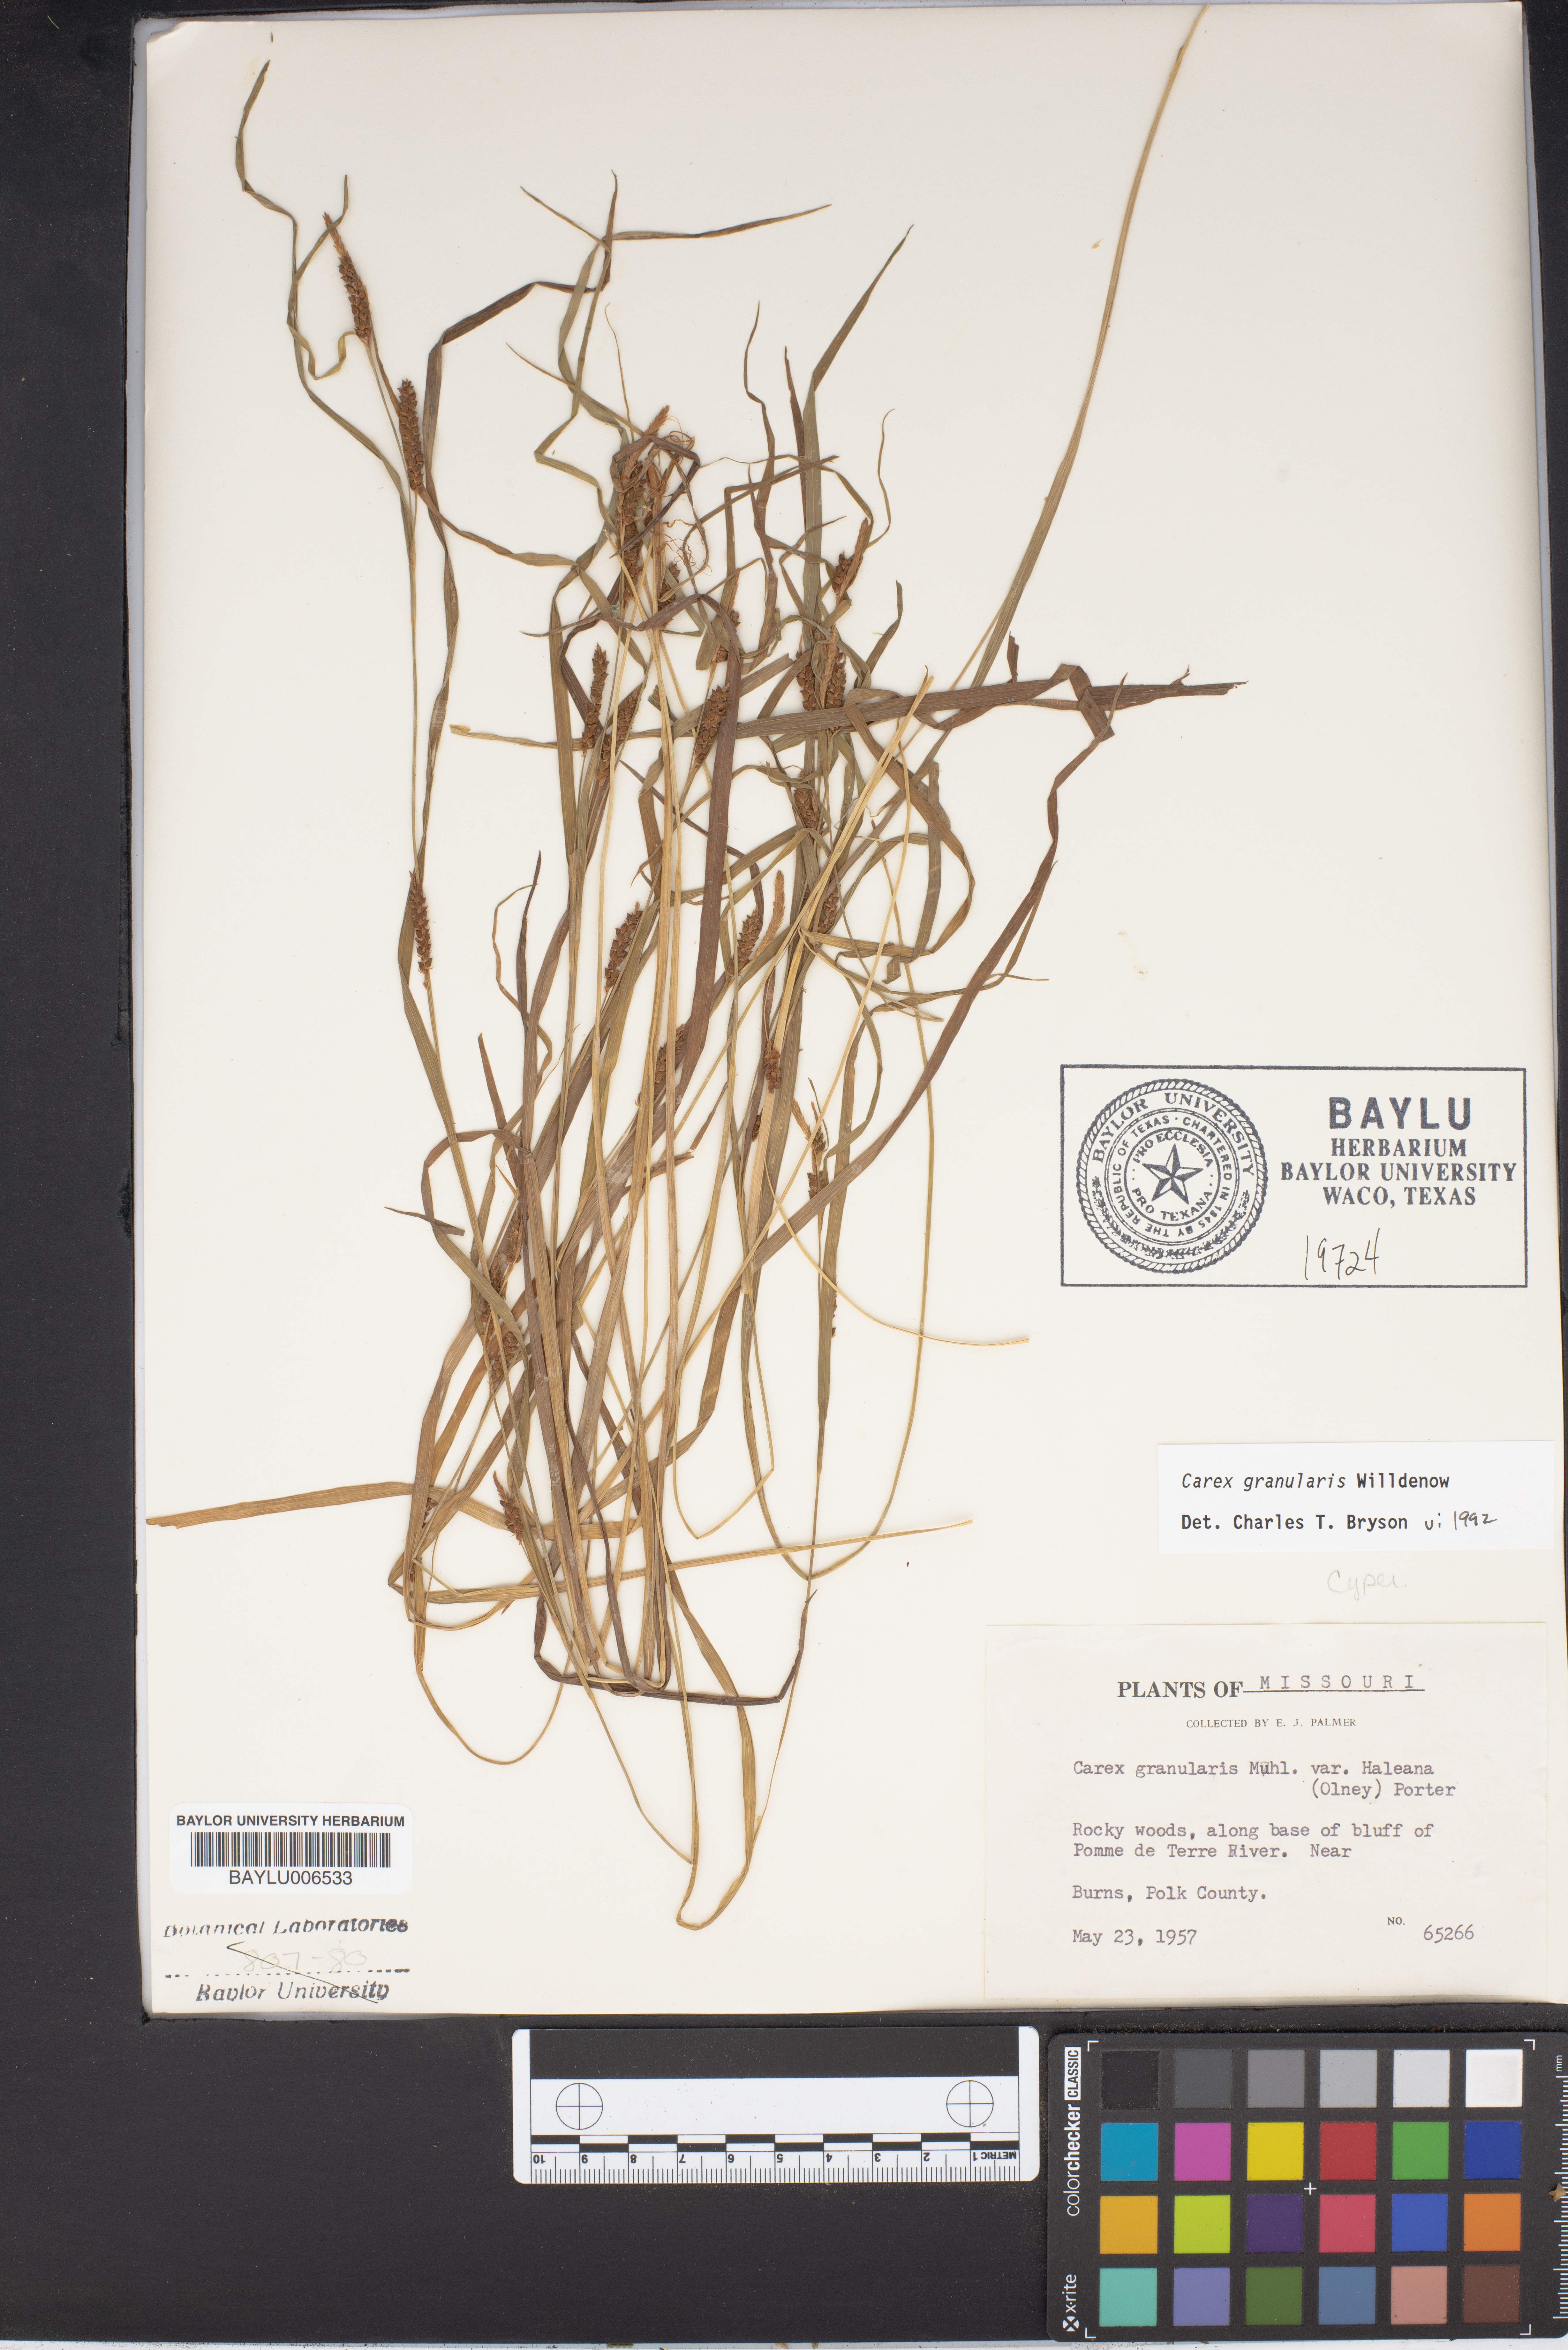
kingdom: Plantae
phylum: Tracheophyta
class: Liliopsida
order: Poales
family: Cyperaceae
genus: Carex
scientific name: Carex granularis
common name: Granular sedge
